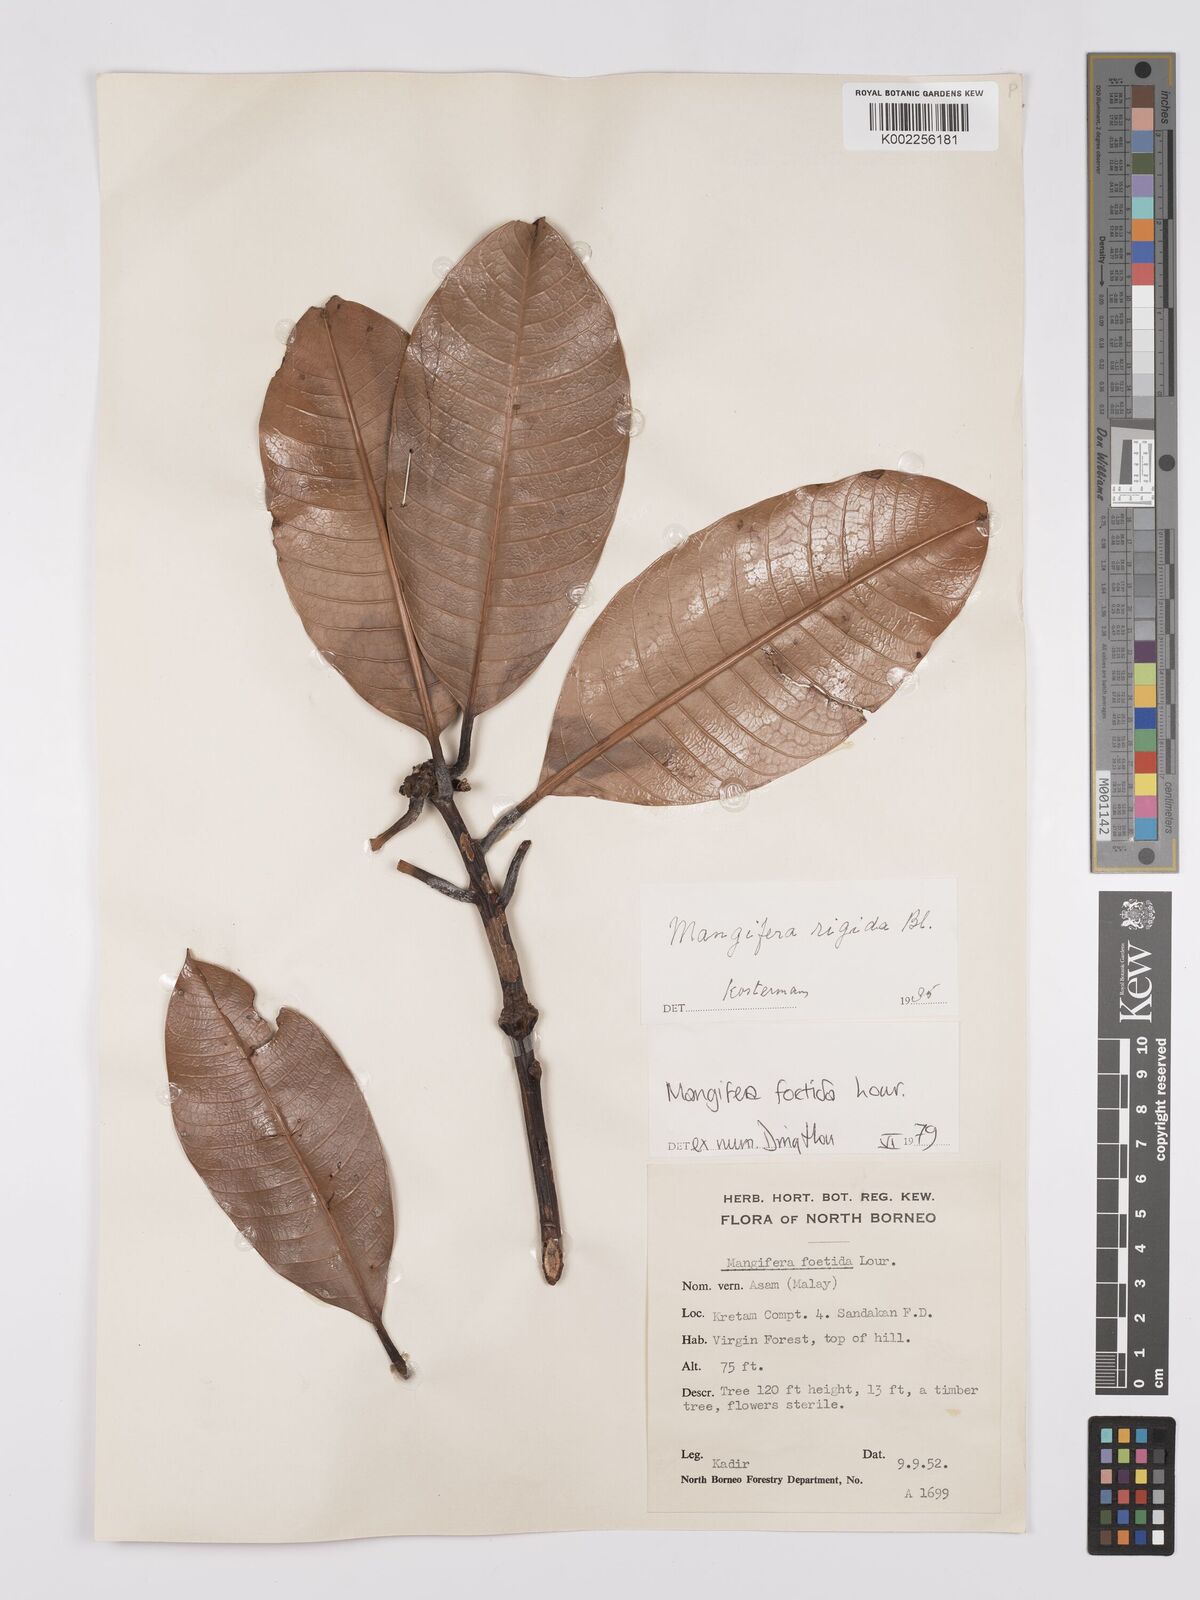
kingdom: Plantae
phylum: Tracheophyta
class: Magnoliopsida
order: Sapindales
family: Anacardiaceae
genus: Mangifera
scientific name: Mangifera quadrifida
